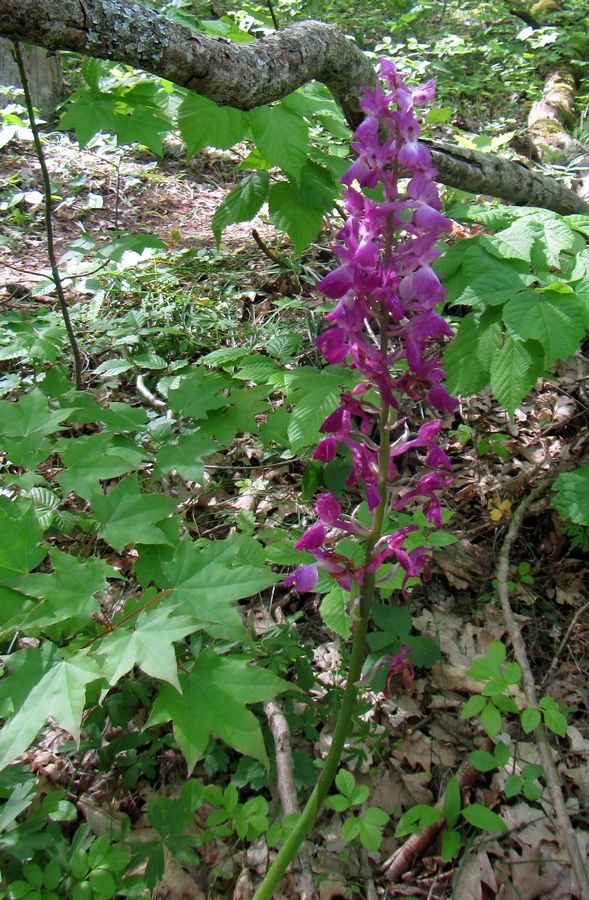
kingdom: Plantae
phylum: Tracheophyta
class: Liliopsida
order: Asparagales
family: Orchidaceae
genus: Orchis
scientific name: Orchis mascula
